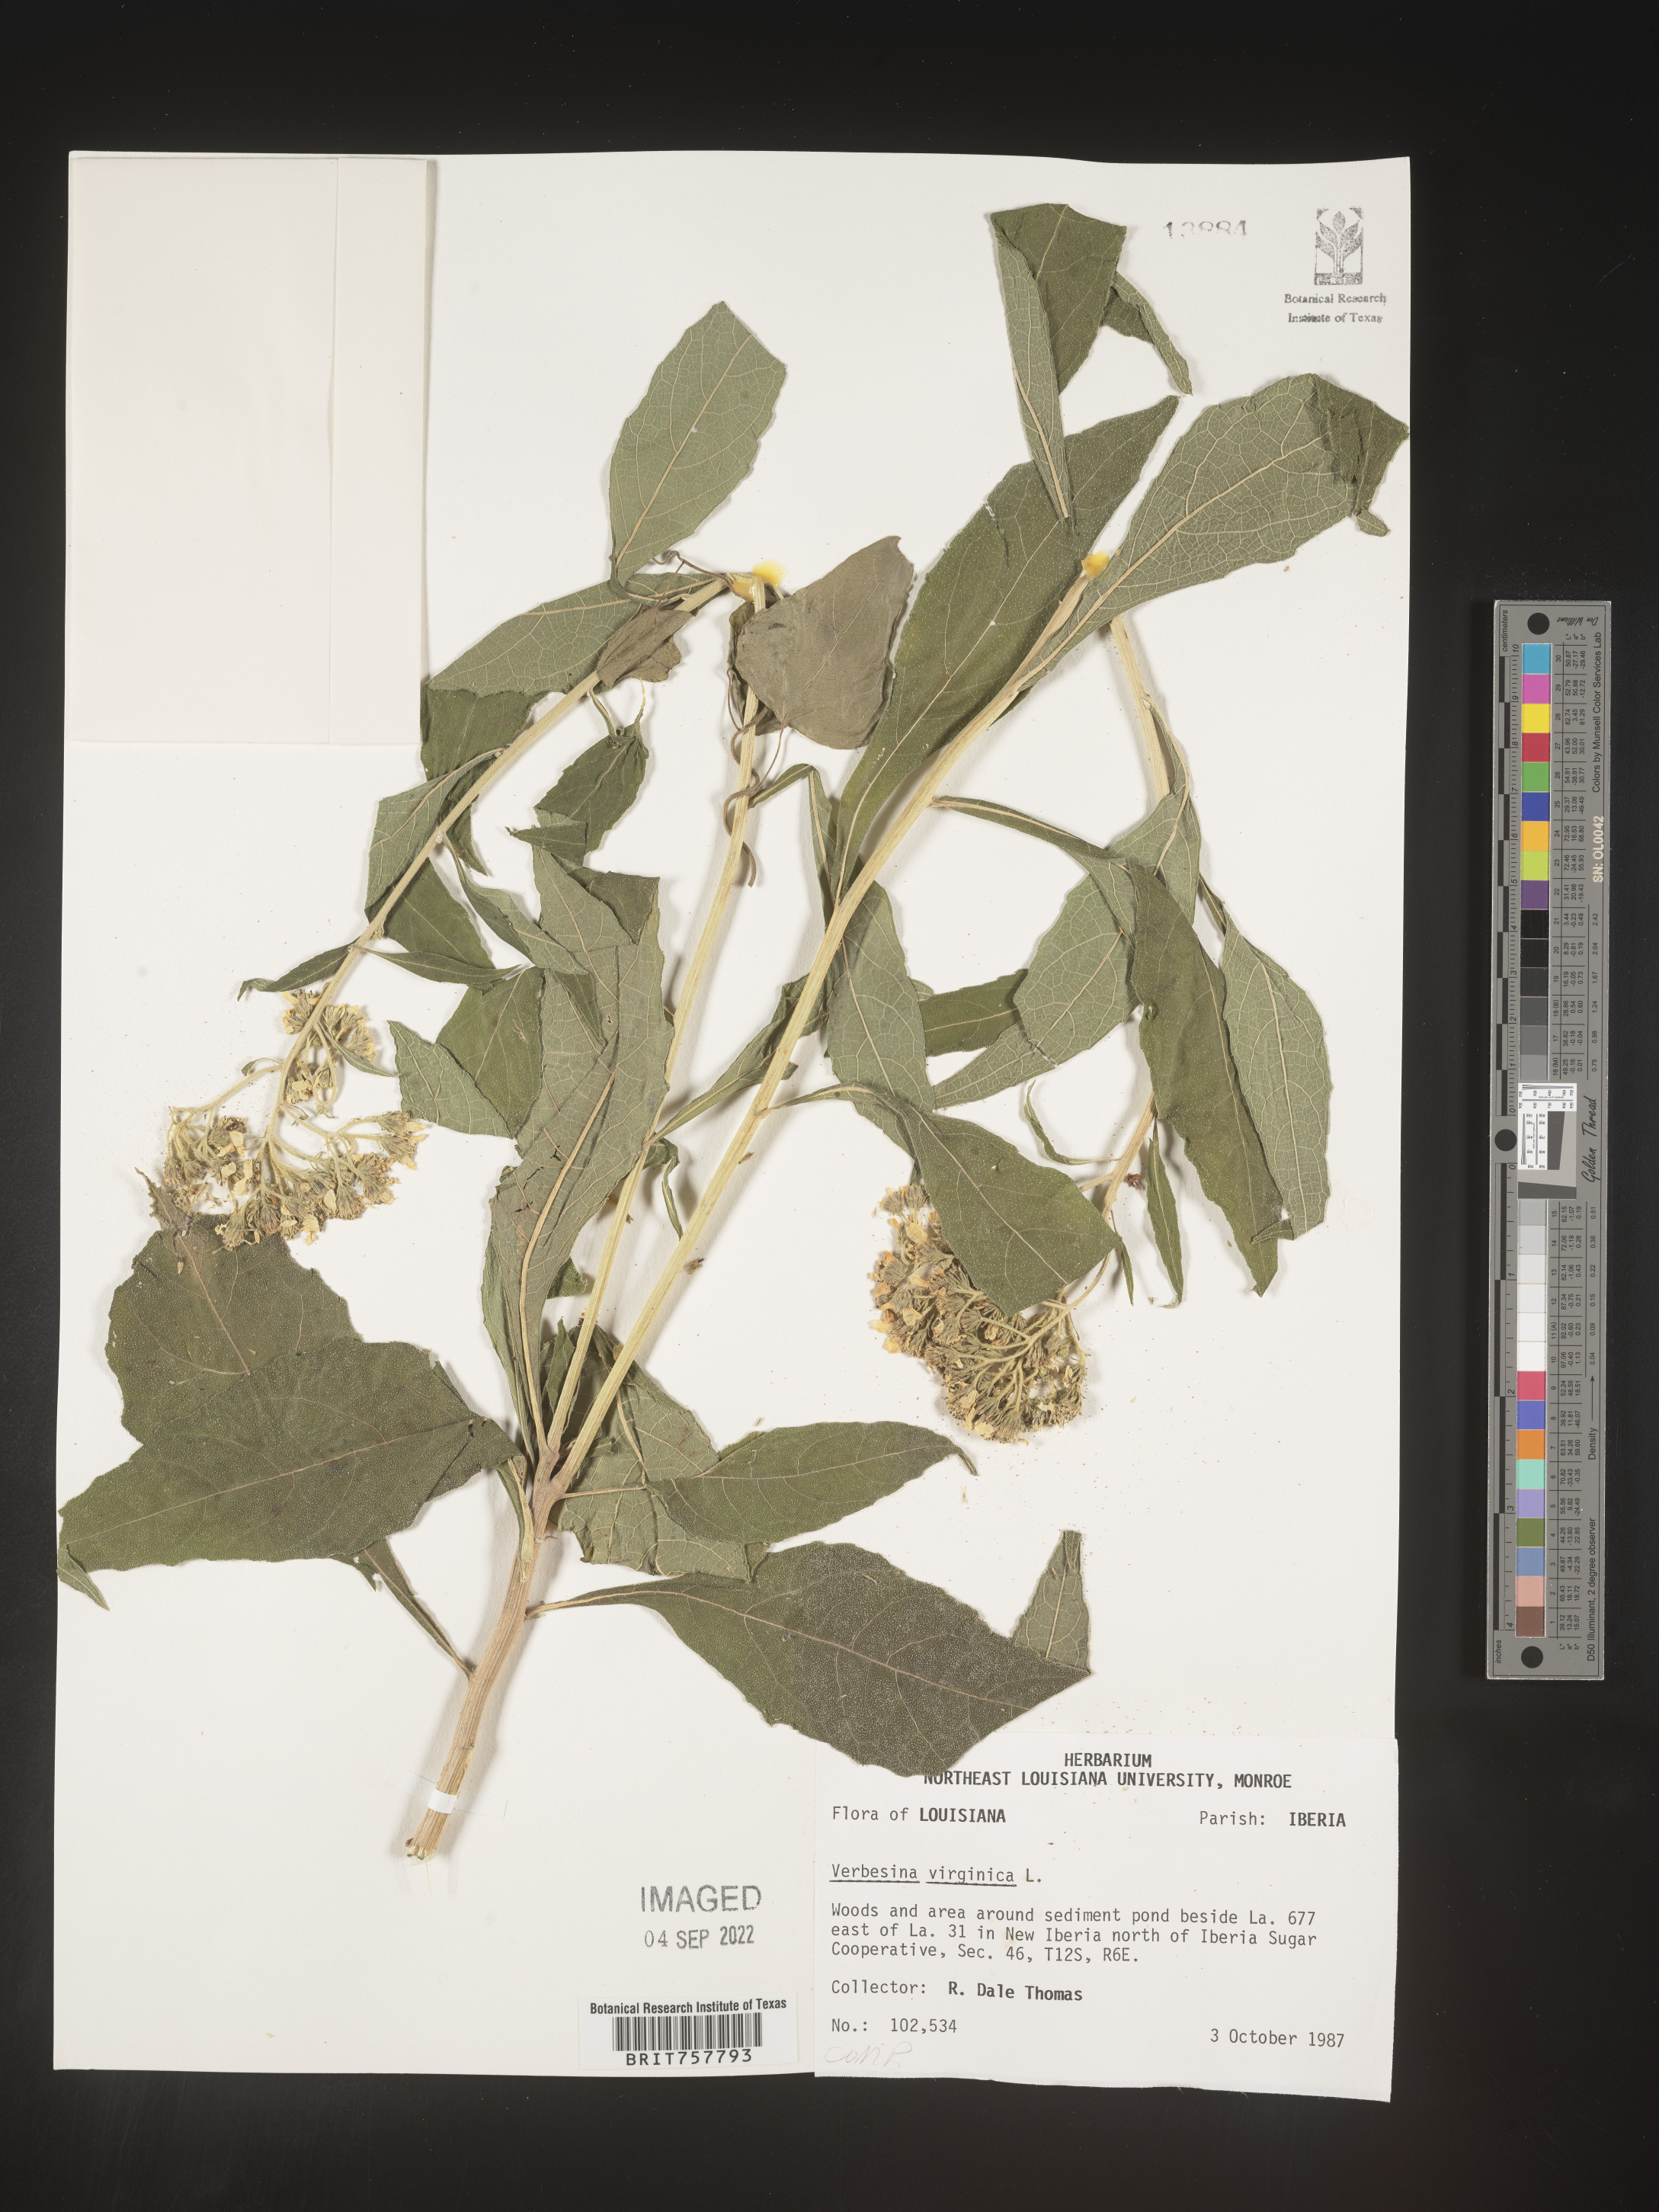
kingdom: Plantae
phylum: Tracheophyta
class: Magnoliopsida
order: Asterales
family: Asteraceae
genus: Verbesina
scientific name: Verbesina virginica
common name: Frostweed
